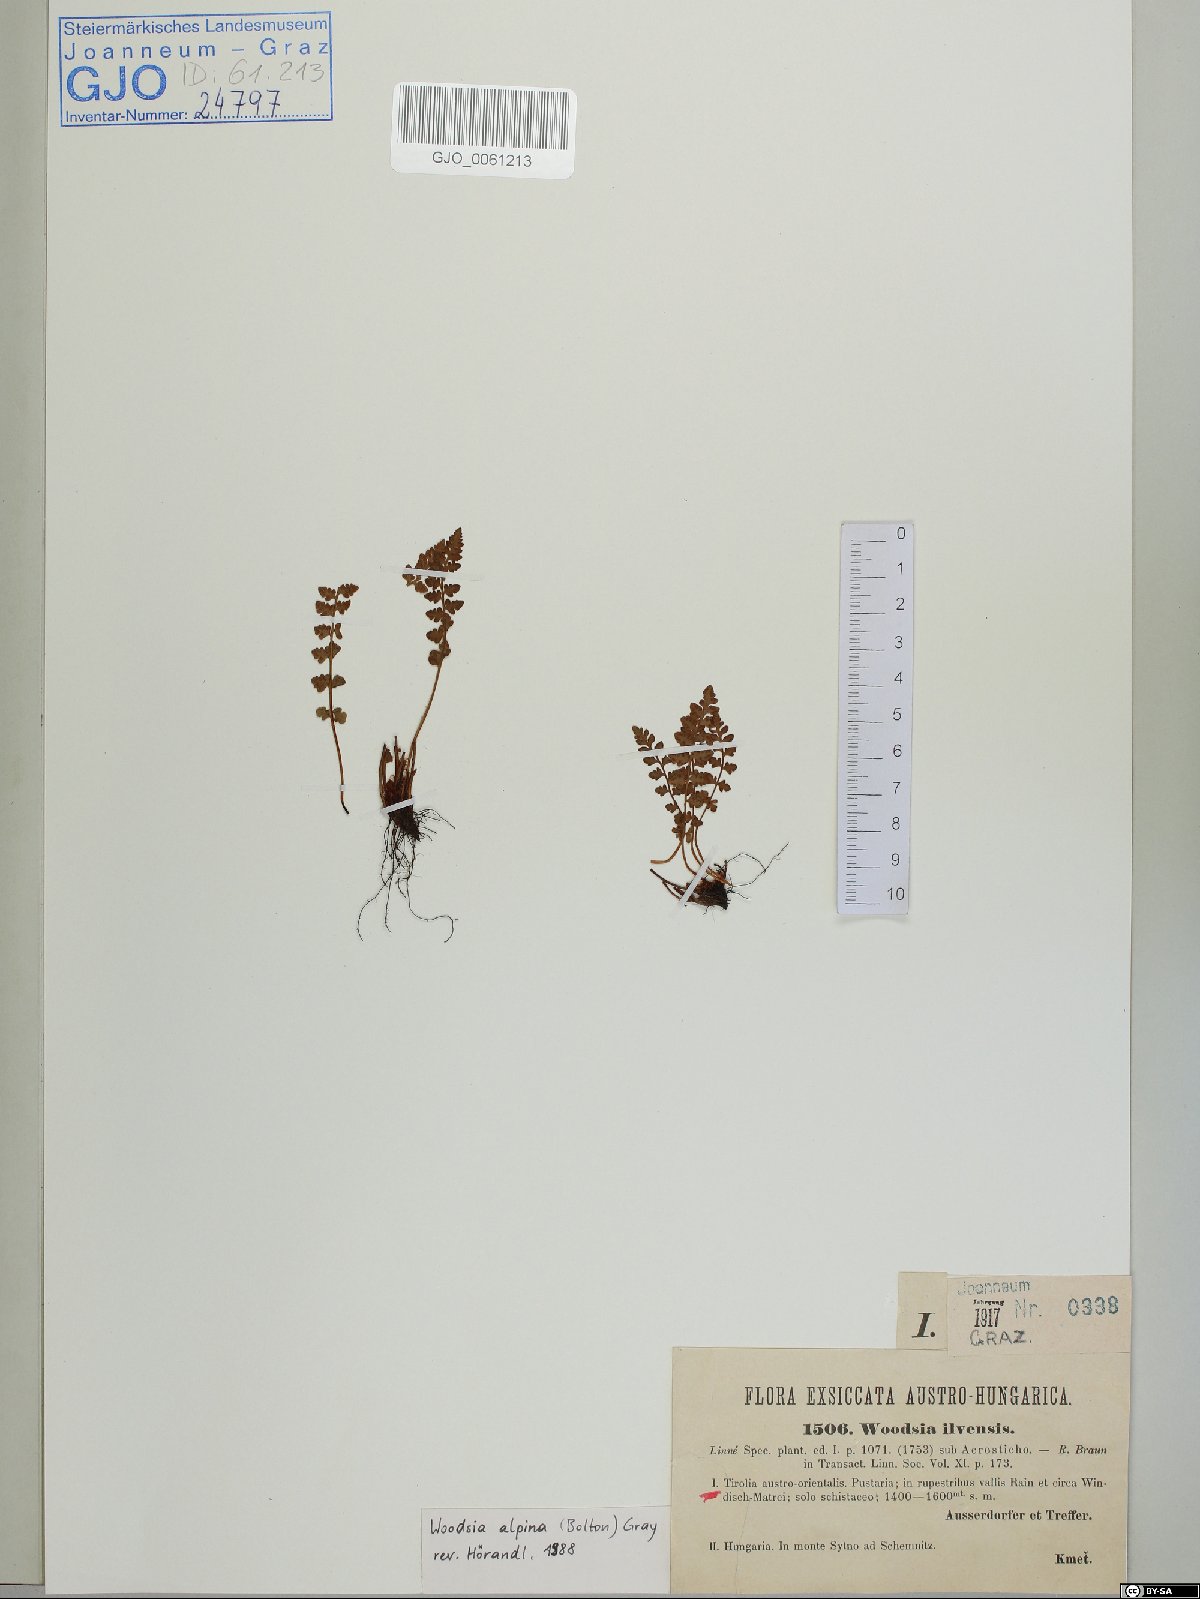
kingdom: Plantae
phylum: Tracheophyta
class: Polypodiopsida
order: Polypodiales
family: Woodsiaceae
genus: Woodsia
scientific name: Woodsia alpina
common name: Alpine woodsia
